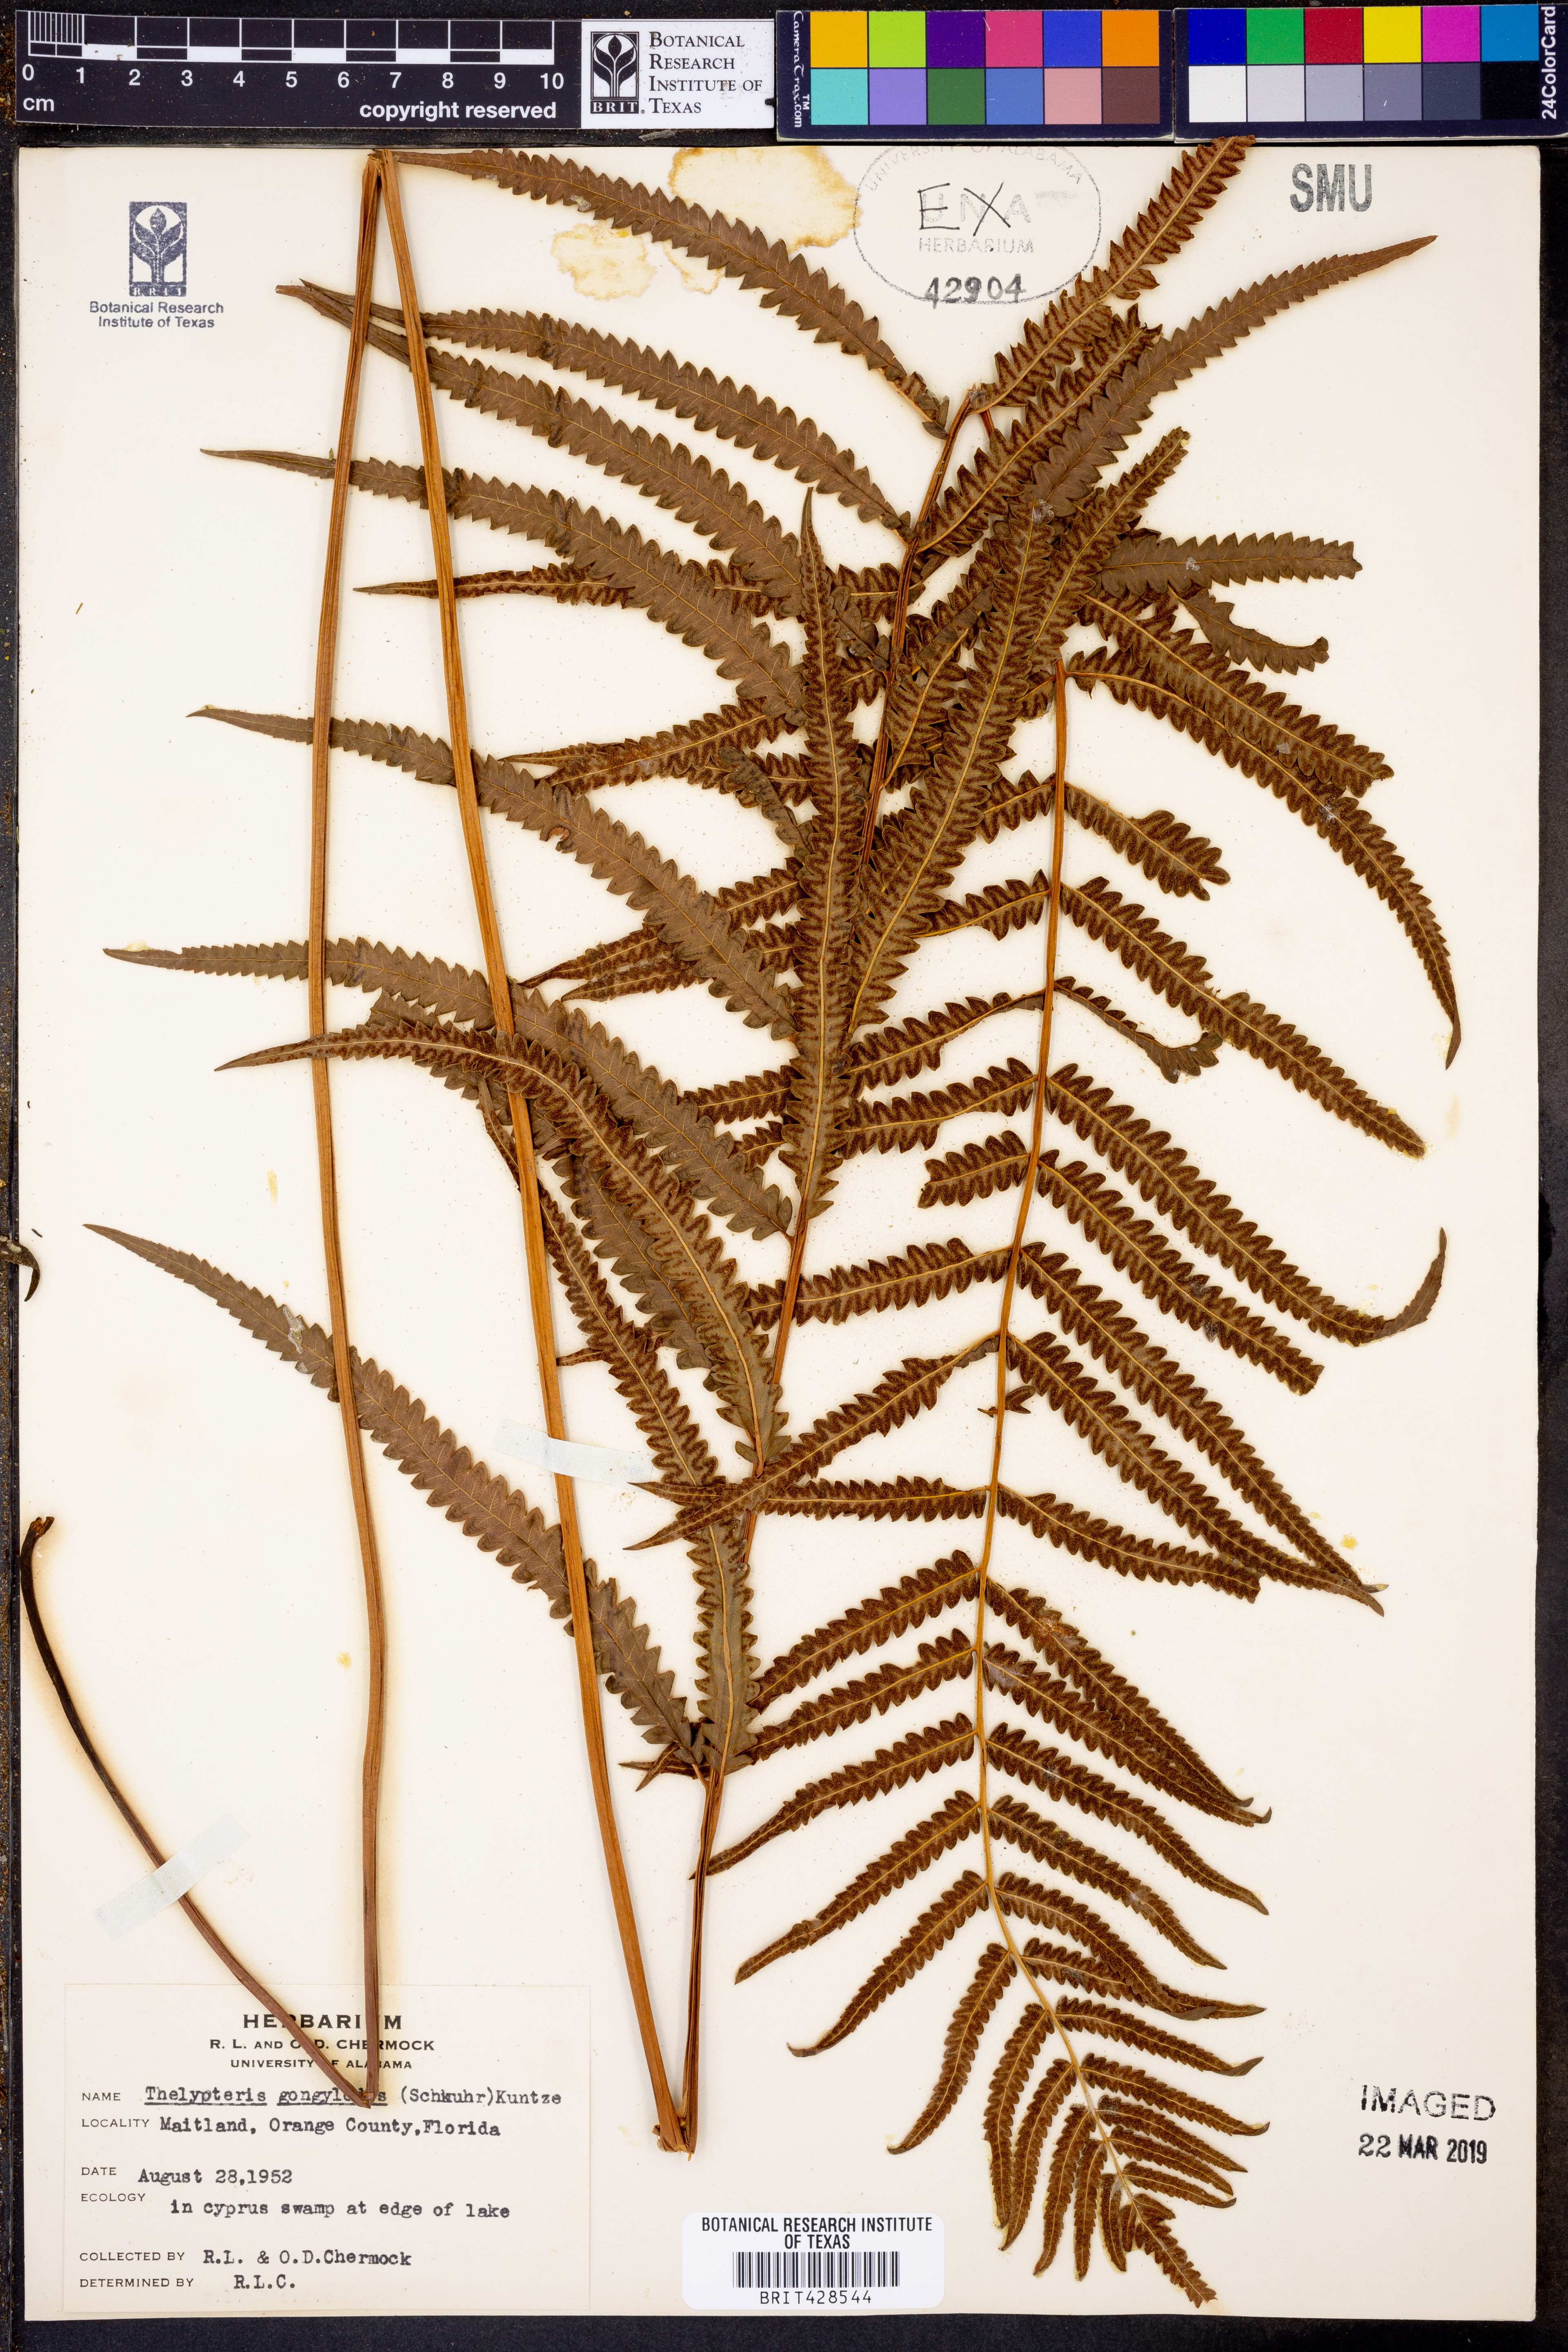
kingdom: Plantae
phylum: Tracheophyta
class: Polypodiopsida
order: Polypodiales
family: Thelypteridaceae
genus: Cyclosorus
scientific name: Cyclosorus interruptus
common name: Neke fern
